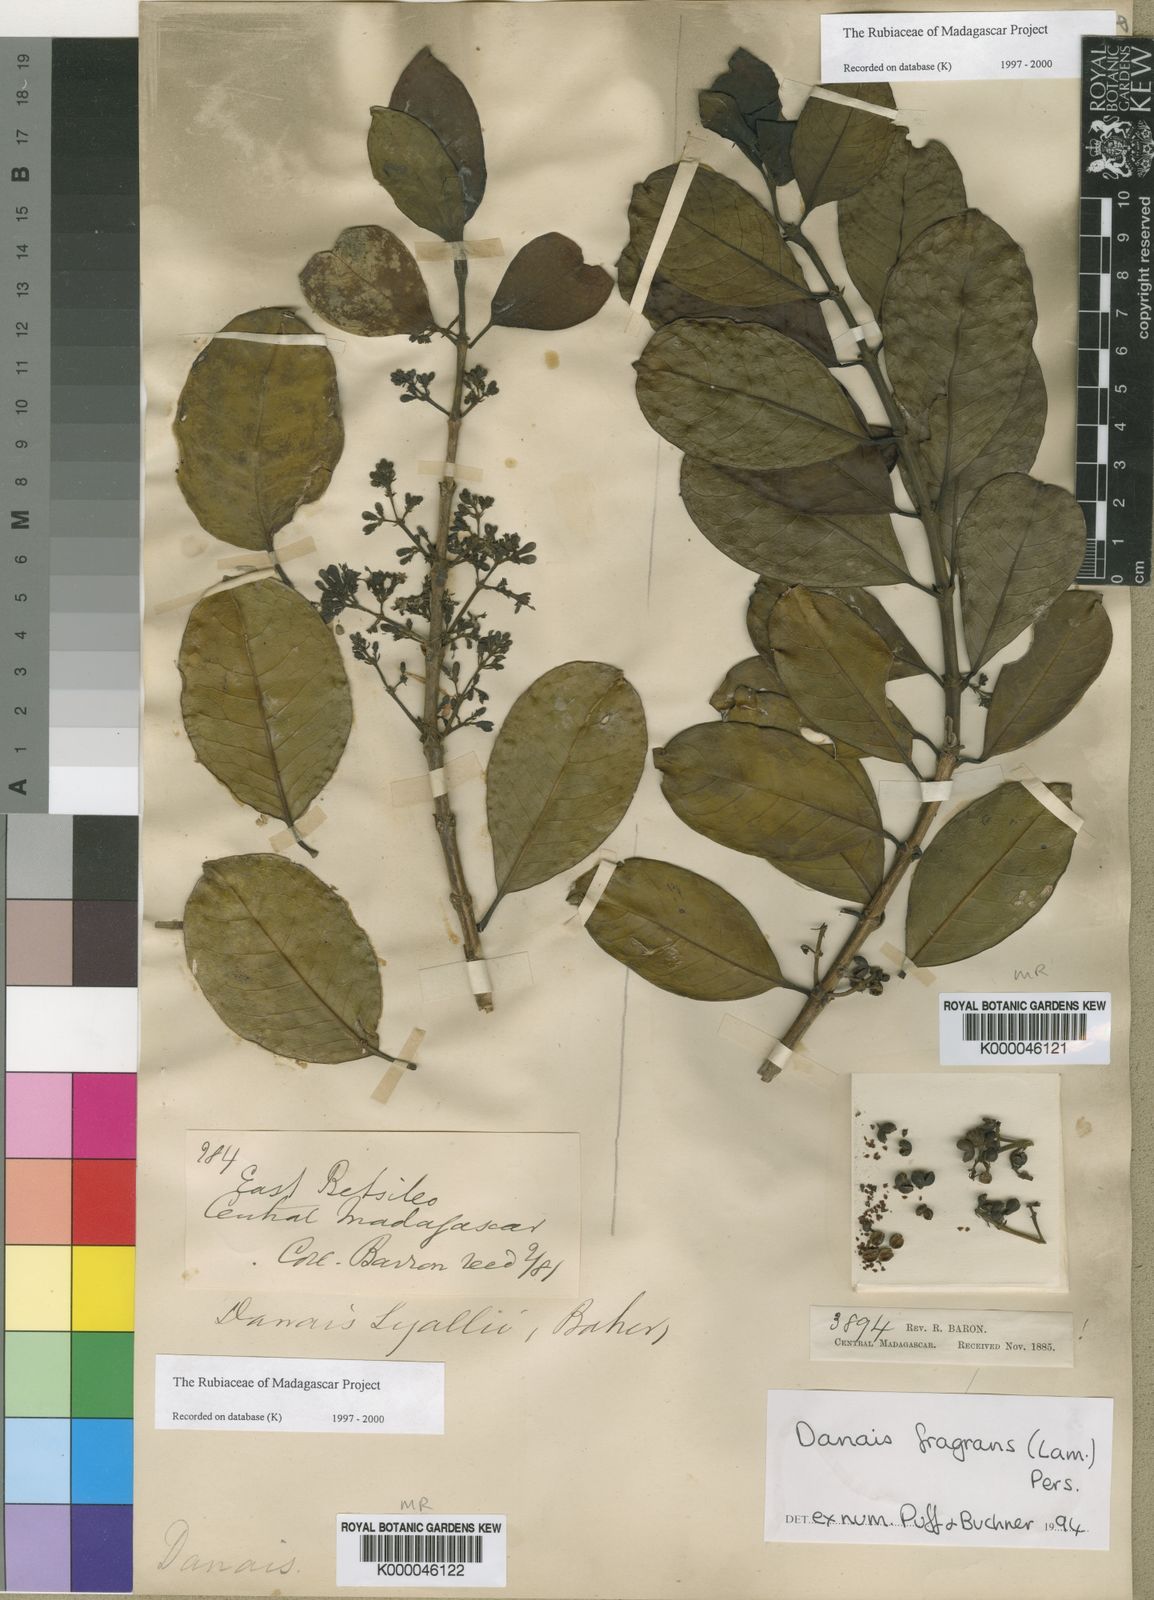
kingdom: Plantae
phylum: Tracheophyta
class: Magnoliopsida
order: Gentianales
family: Rubiaceae
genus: Danais
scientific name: Danais fragrans
